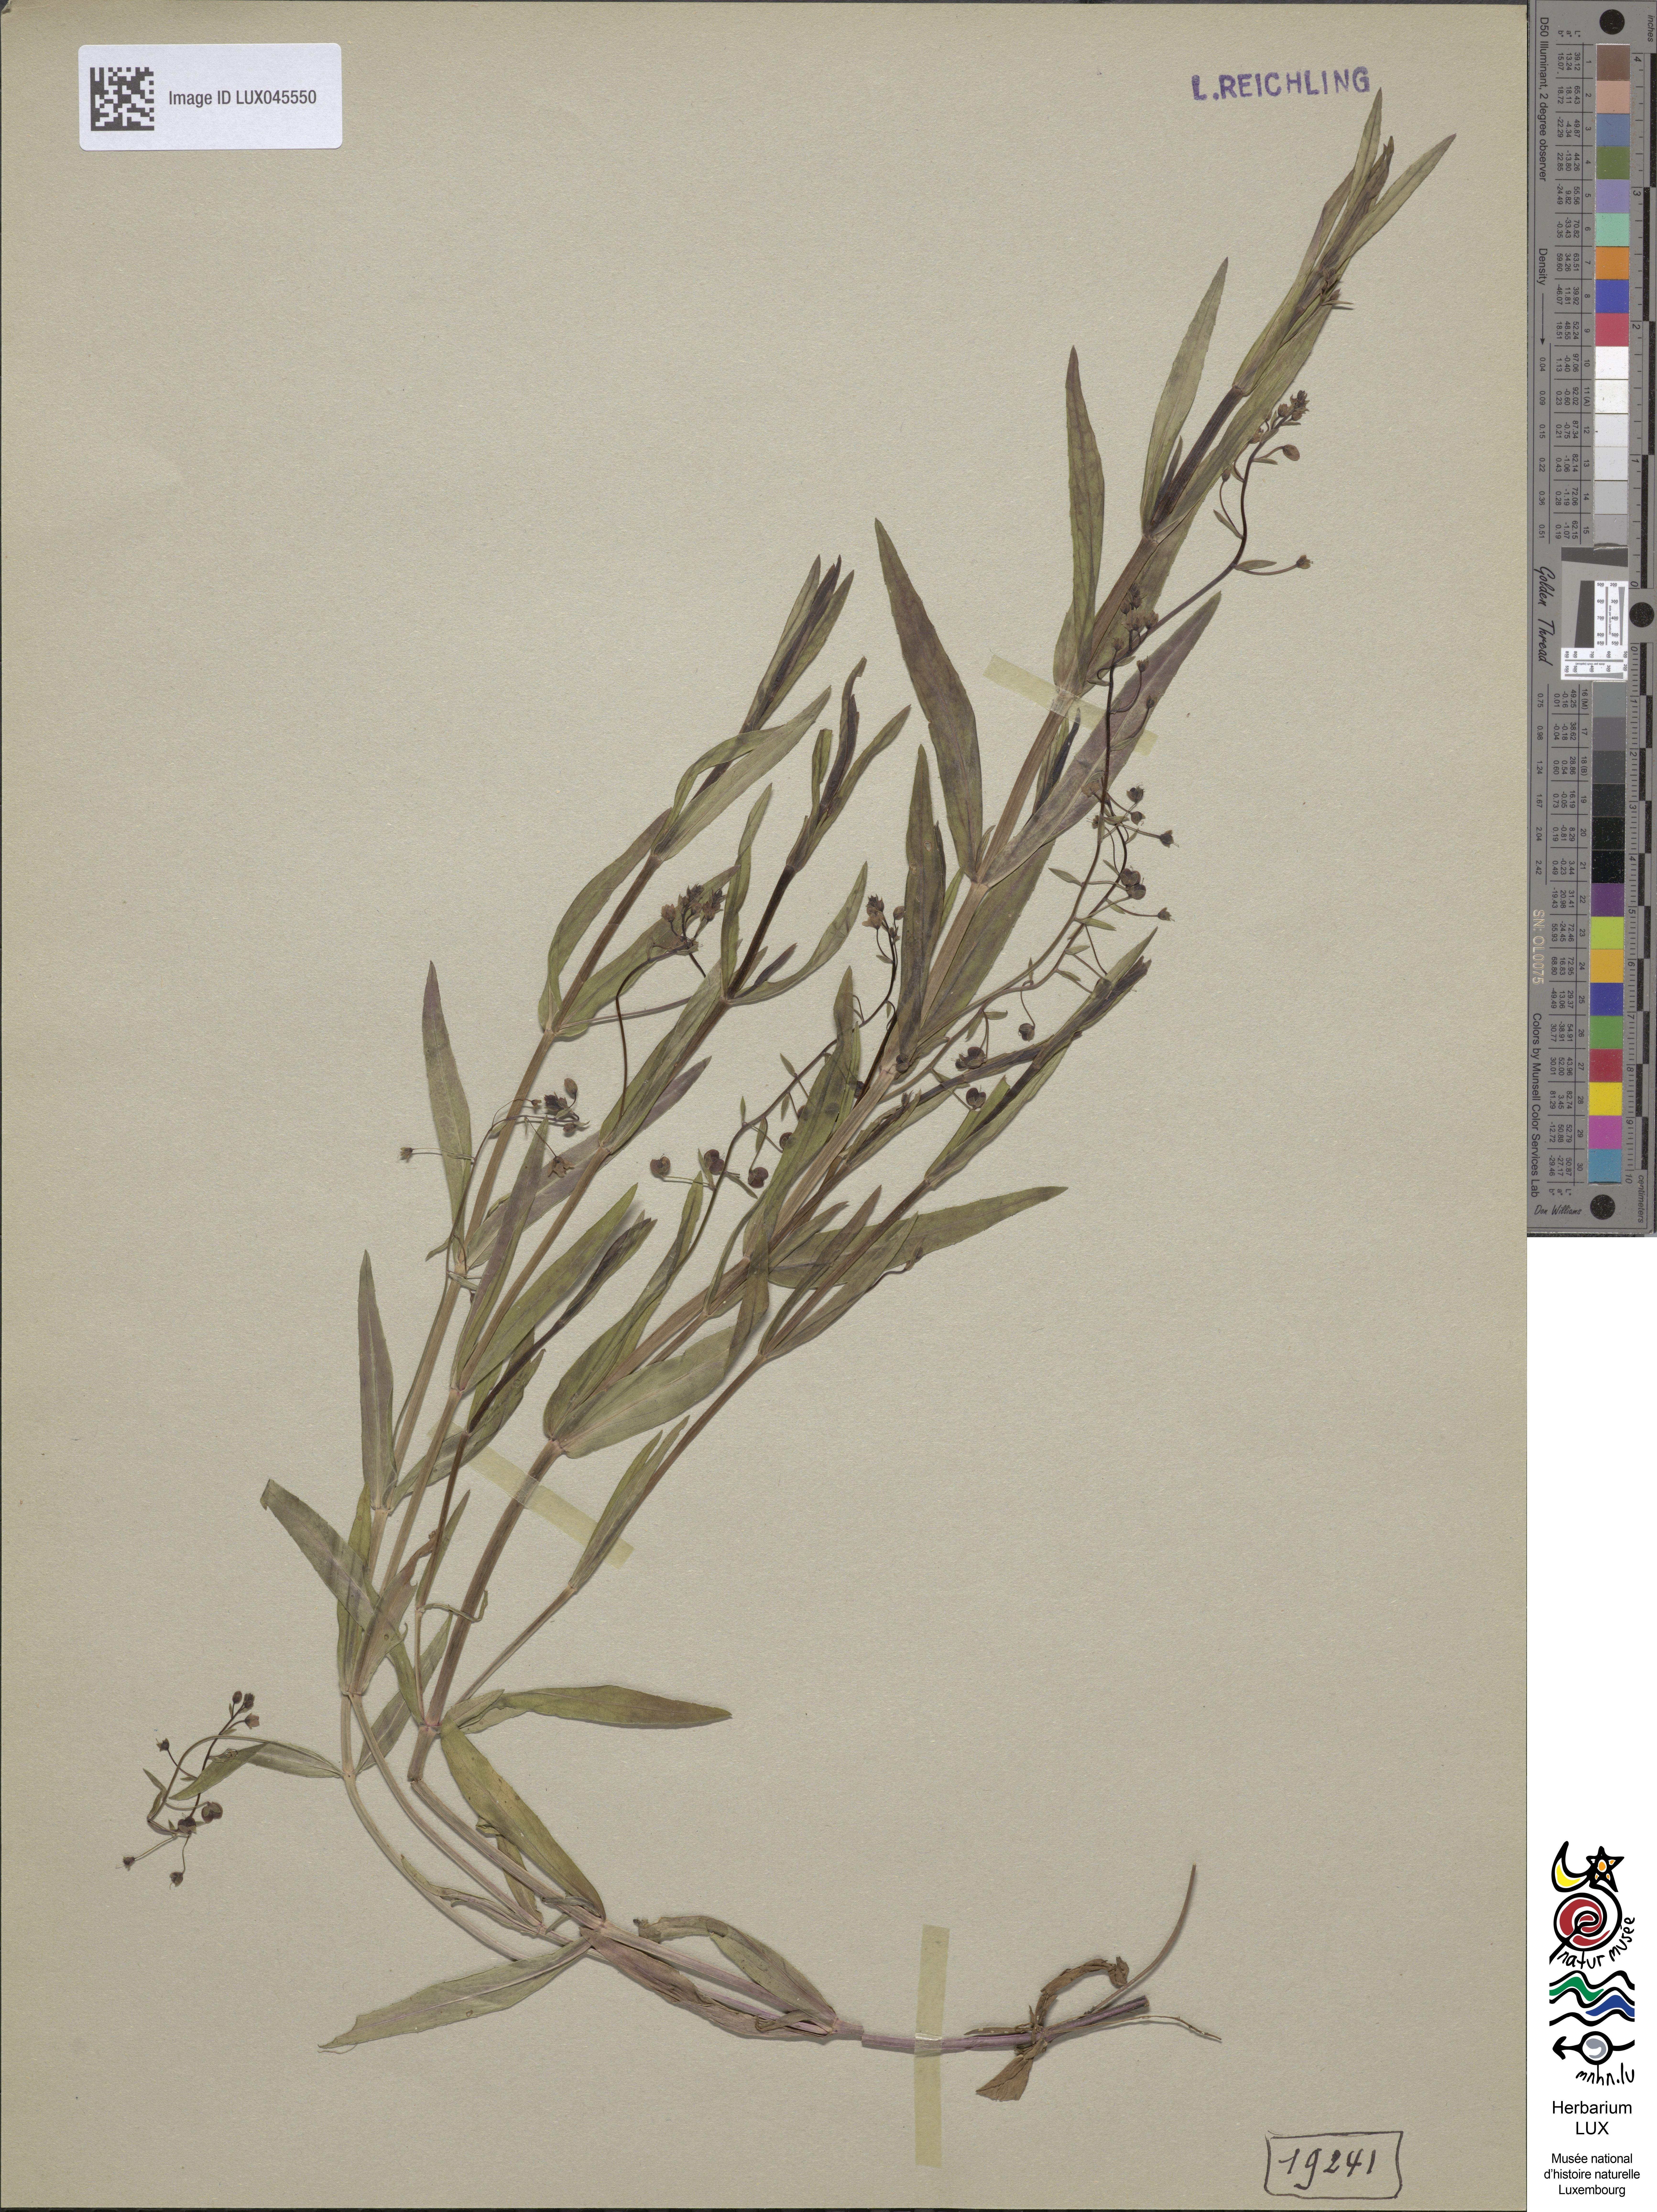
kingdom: Plantae
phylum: Tracheophyta
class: Magnoliopsida
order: Lamiales
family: Plantaginaceae
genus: Veronica
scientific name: Veronica scutellata
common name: Marsh speedwell
